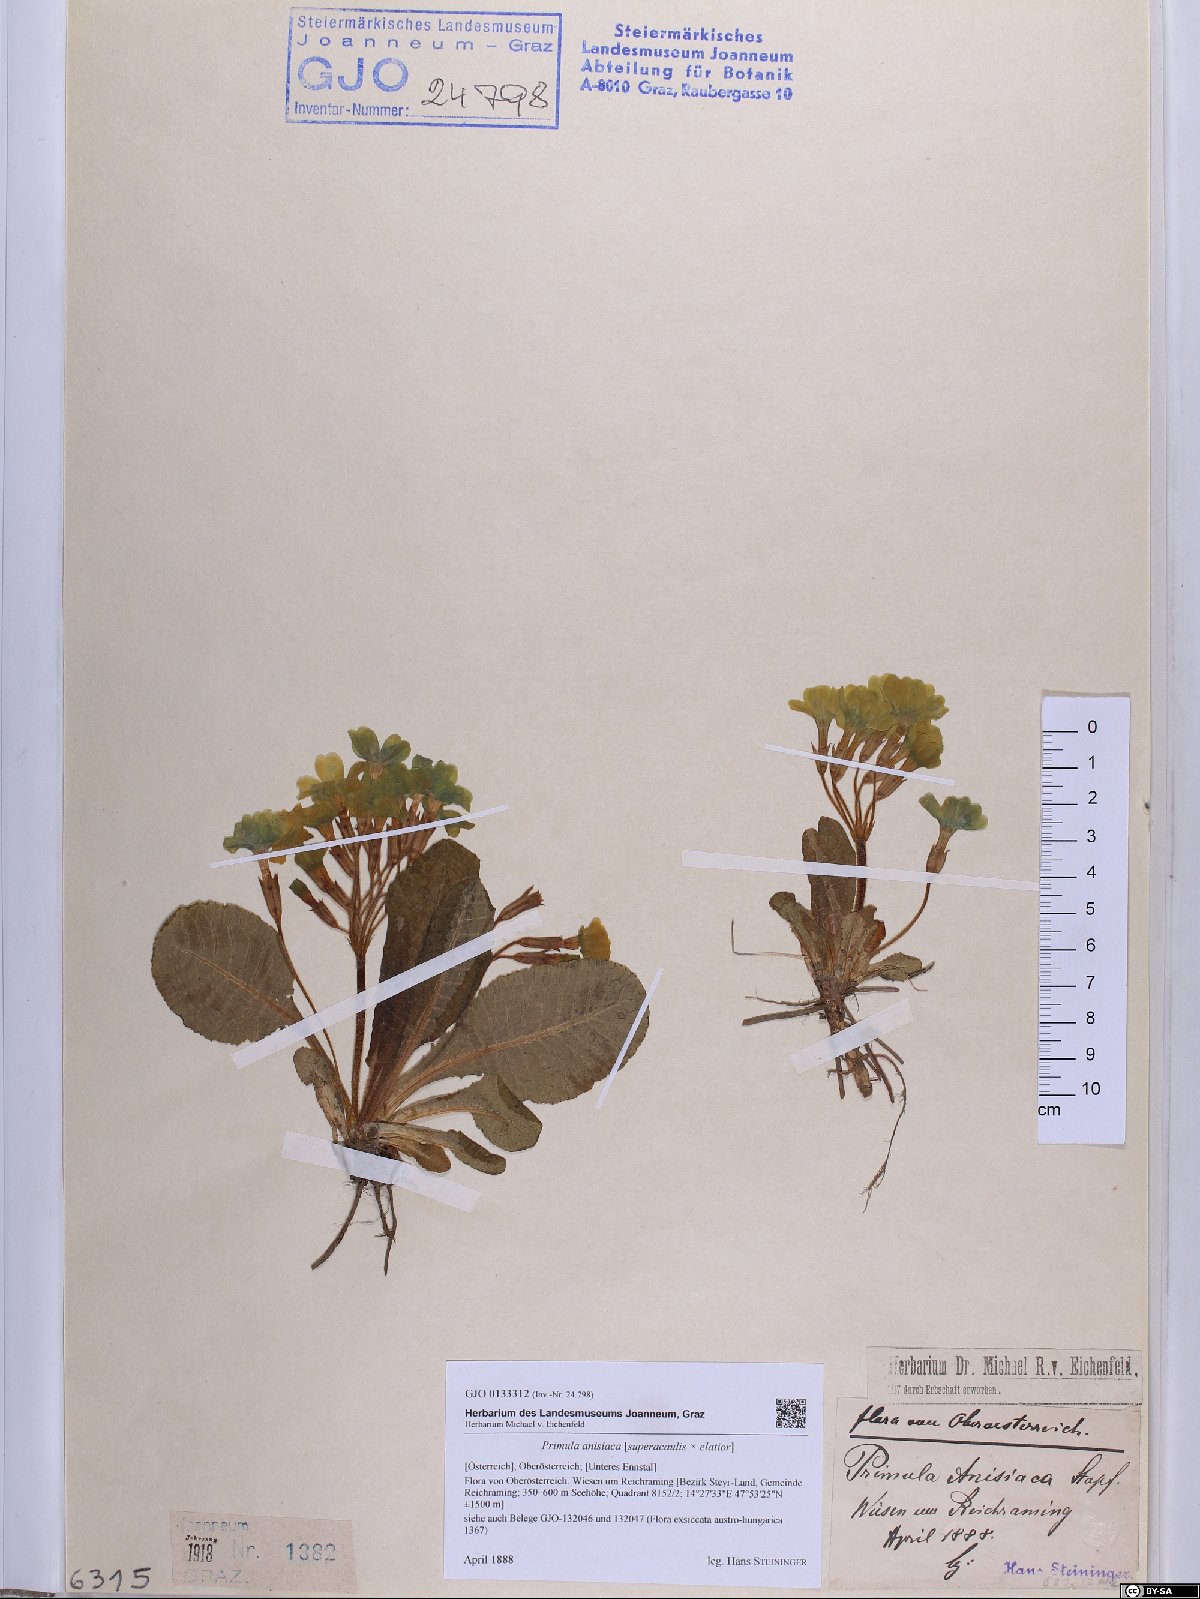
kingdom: Plantae
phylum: Tracheophyta
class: Magnoliopsida
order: Ericales
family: Primulaceae
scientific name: Primulaceae
